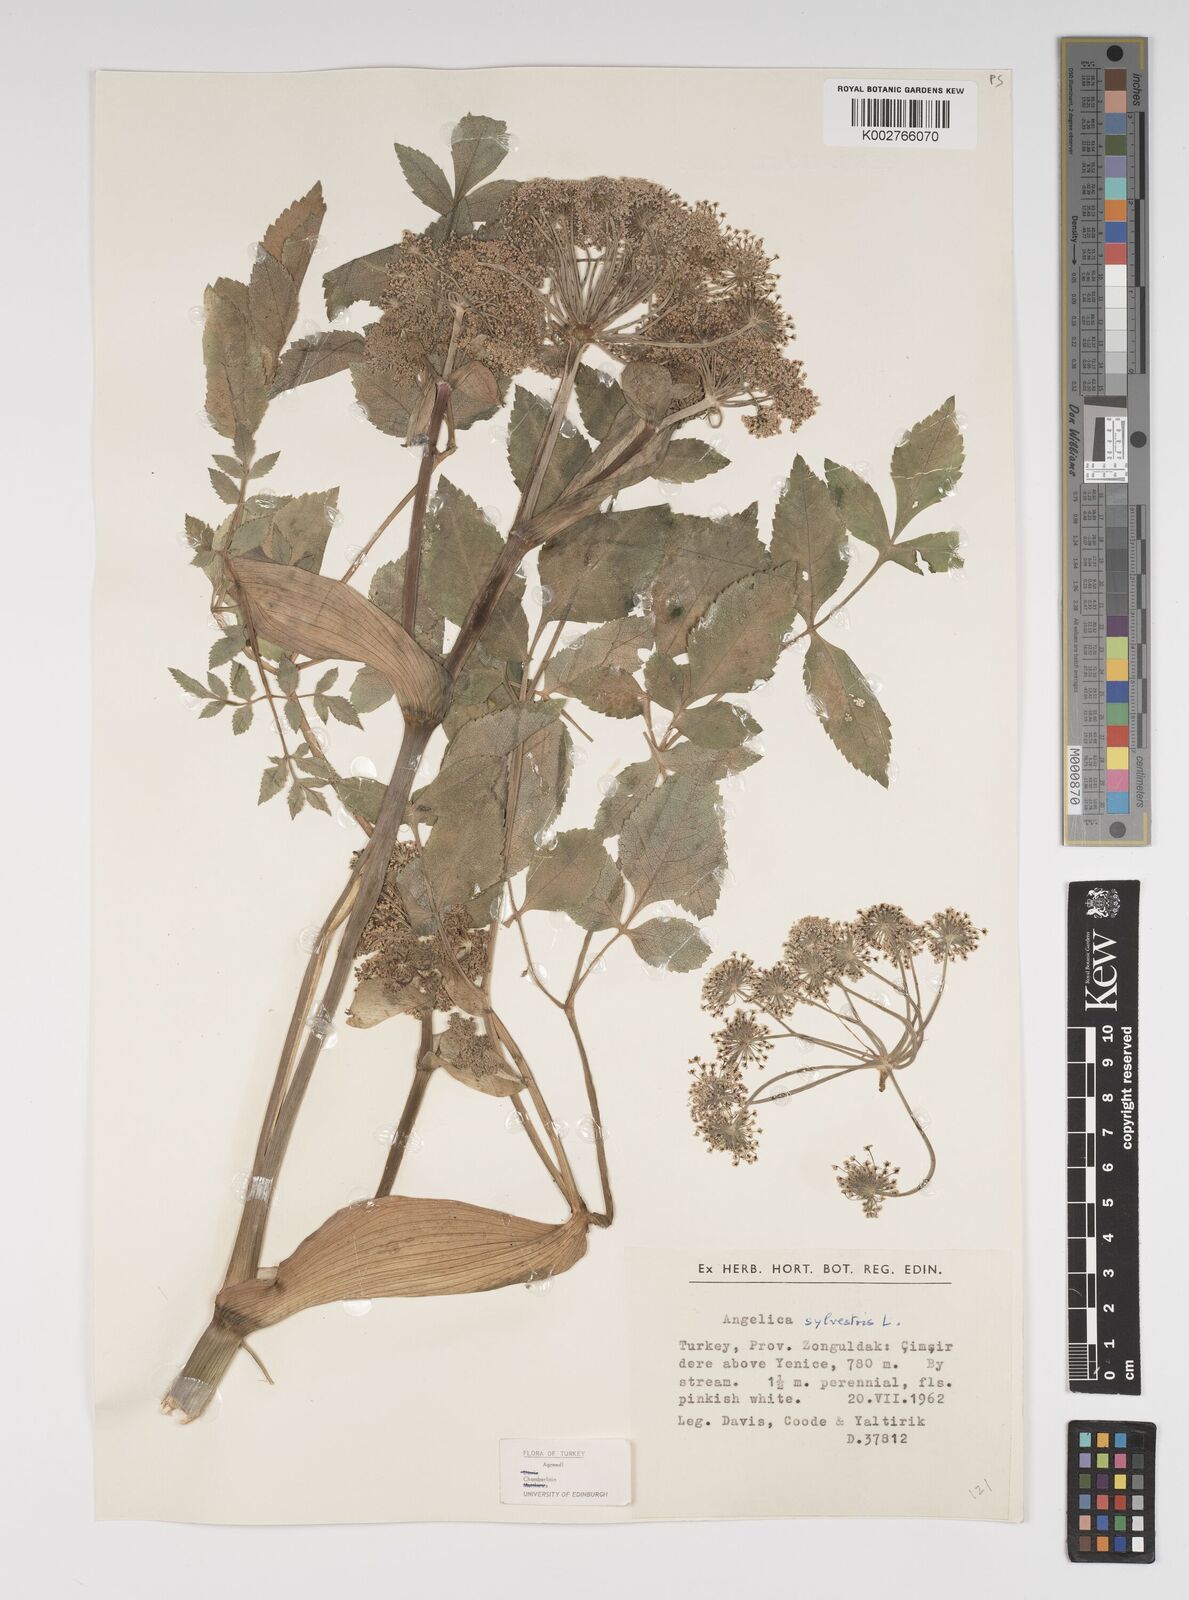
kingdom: Plantae
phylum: Tracheophyta
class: Magnoliopsida
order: Apiales
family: Apiaceae
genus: Angelica
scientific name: Angelica sylvestris
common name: Wild angelica
